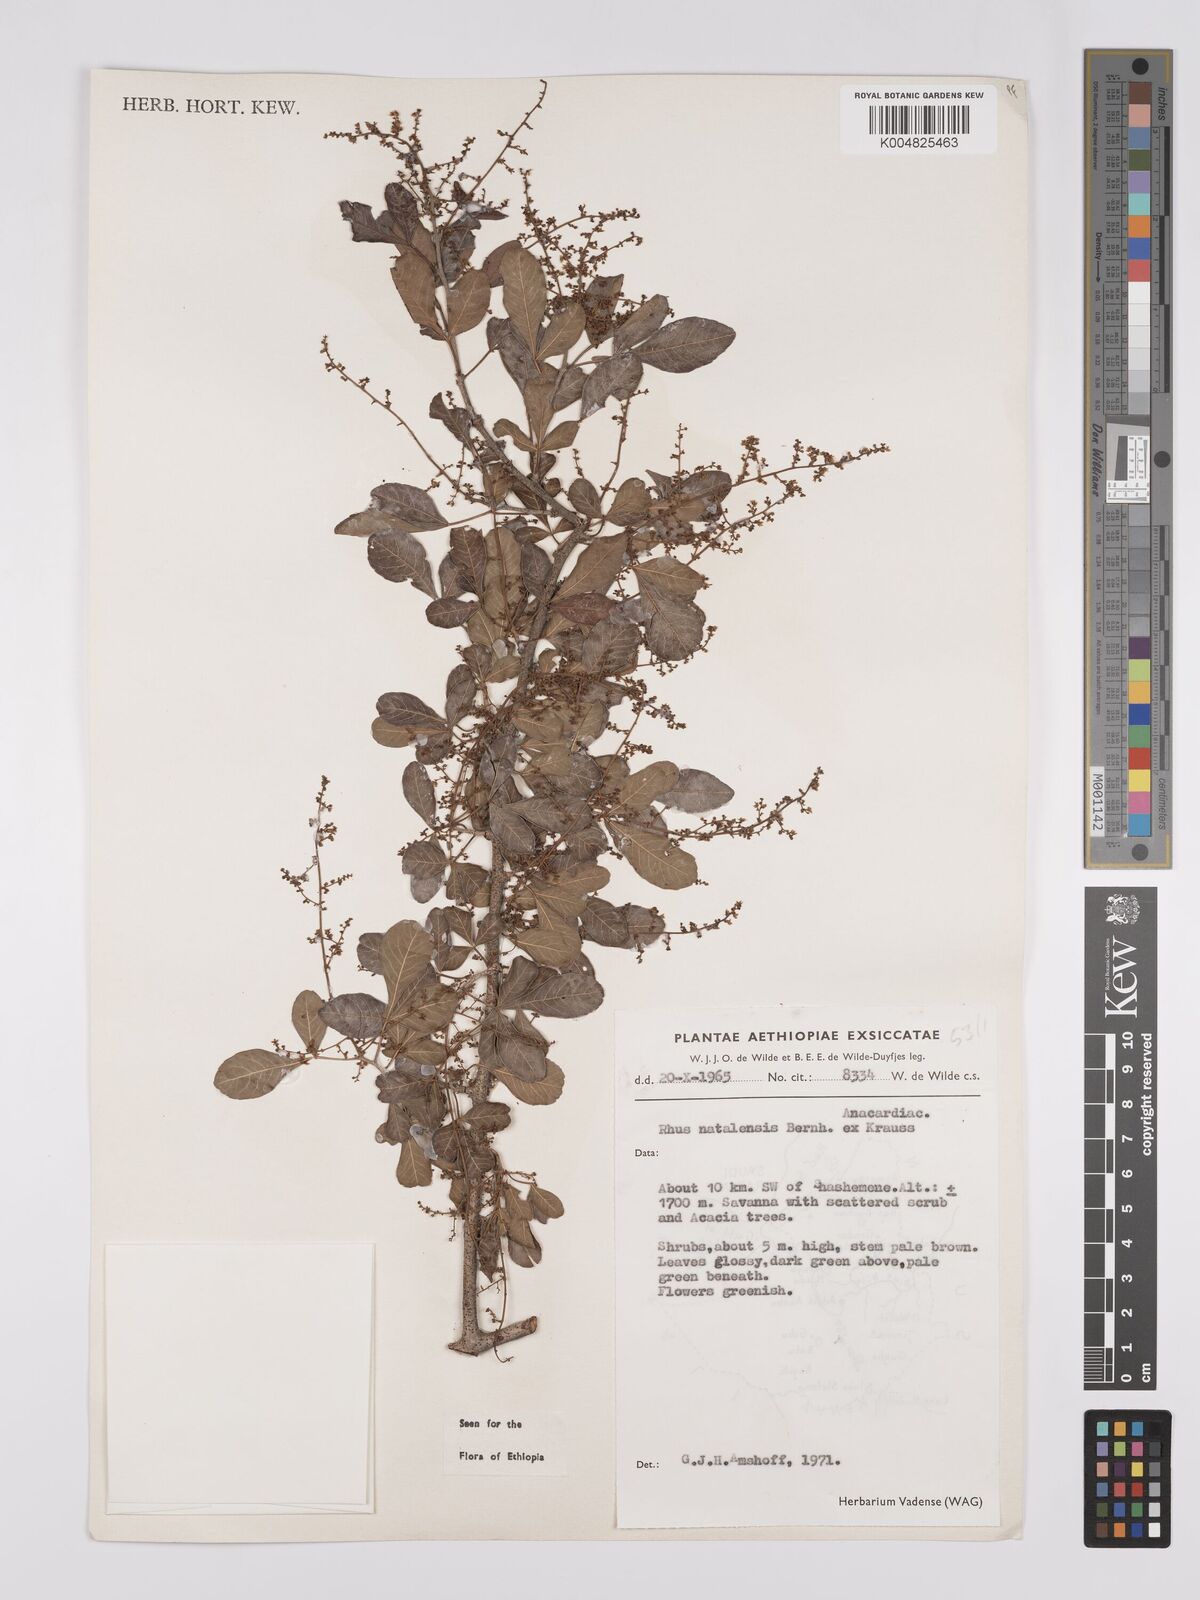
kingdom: Plantae
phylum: Tracheophyta
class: Magnoliopsida
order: Sapindales
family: Anacardiaceae
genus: Searsia
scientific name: Searsia natalensis
